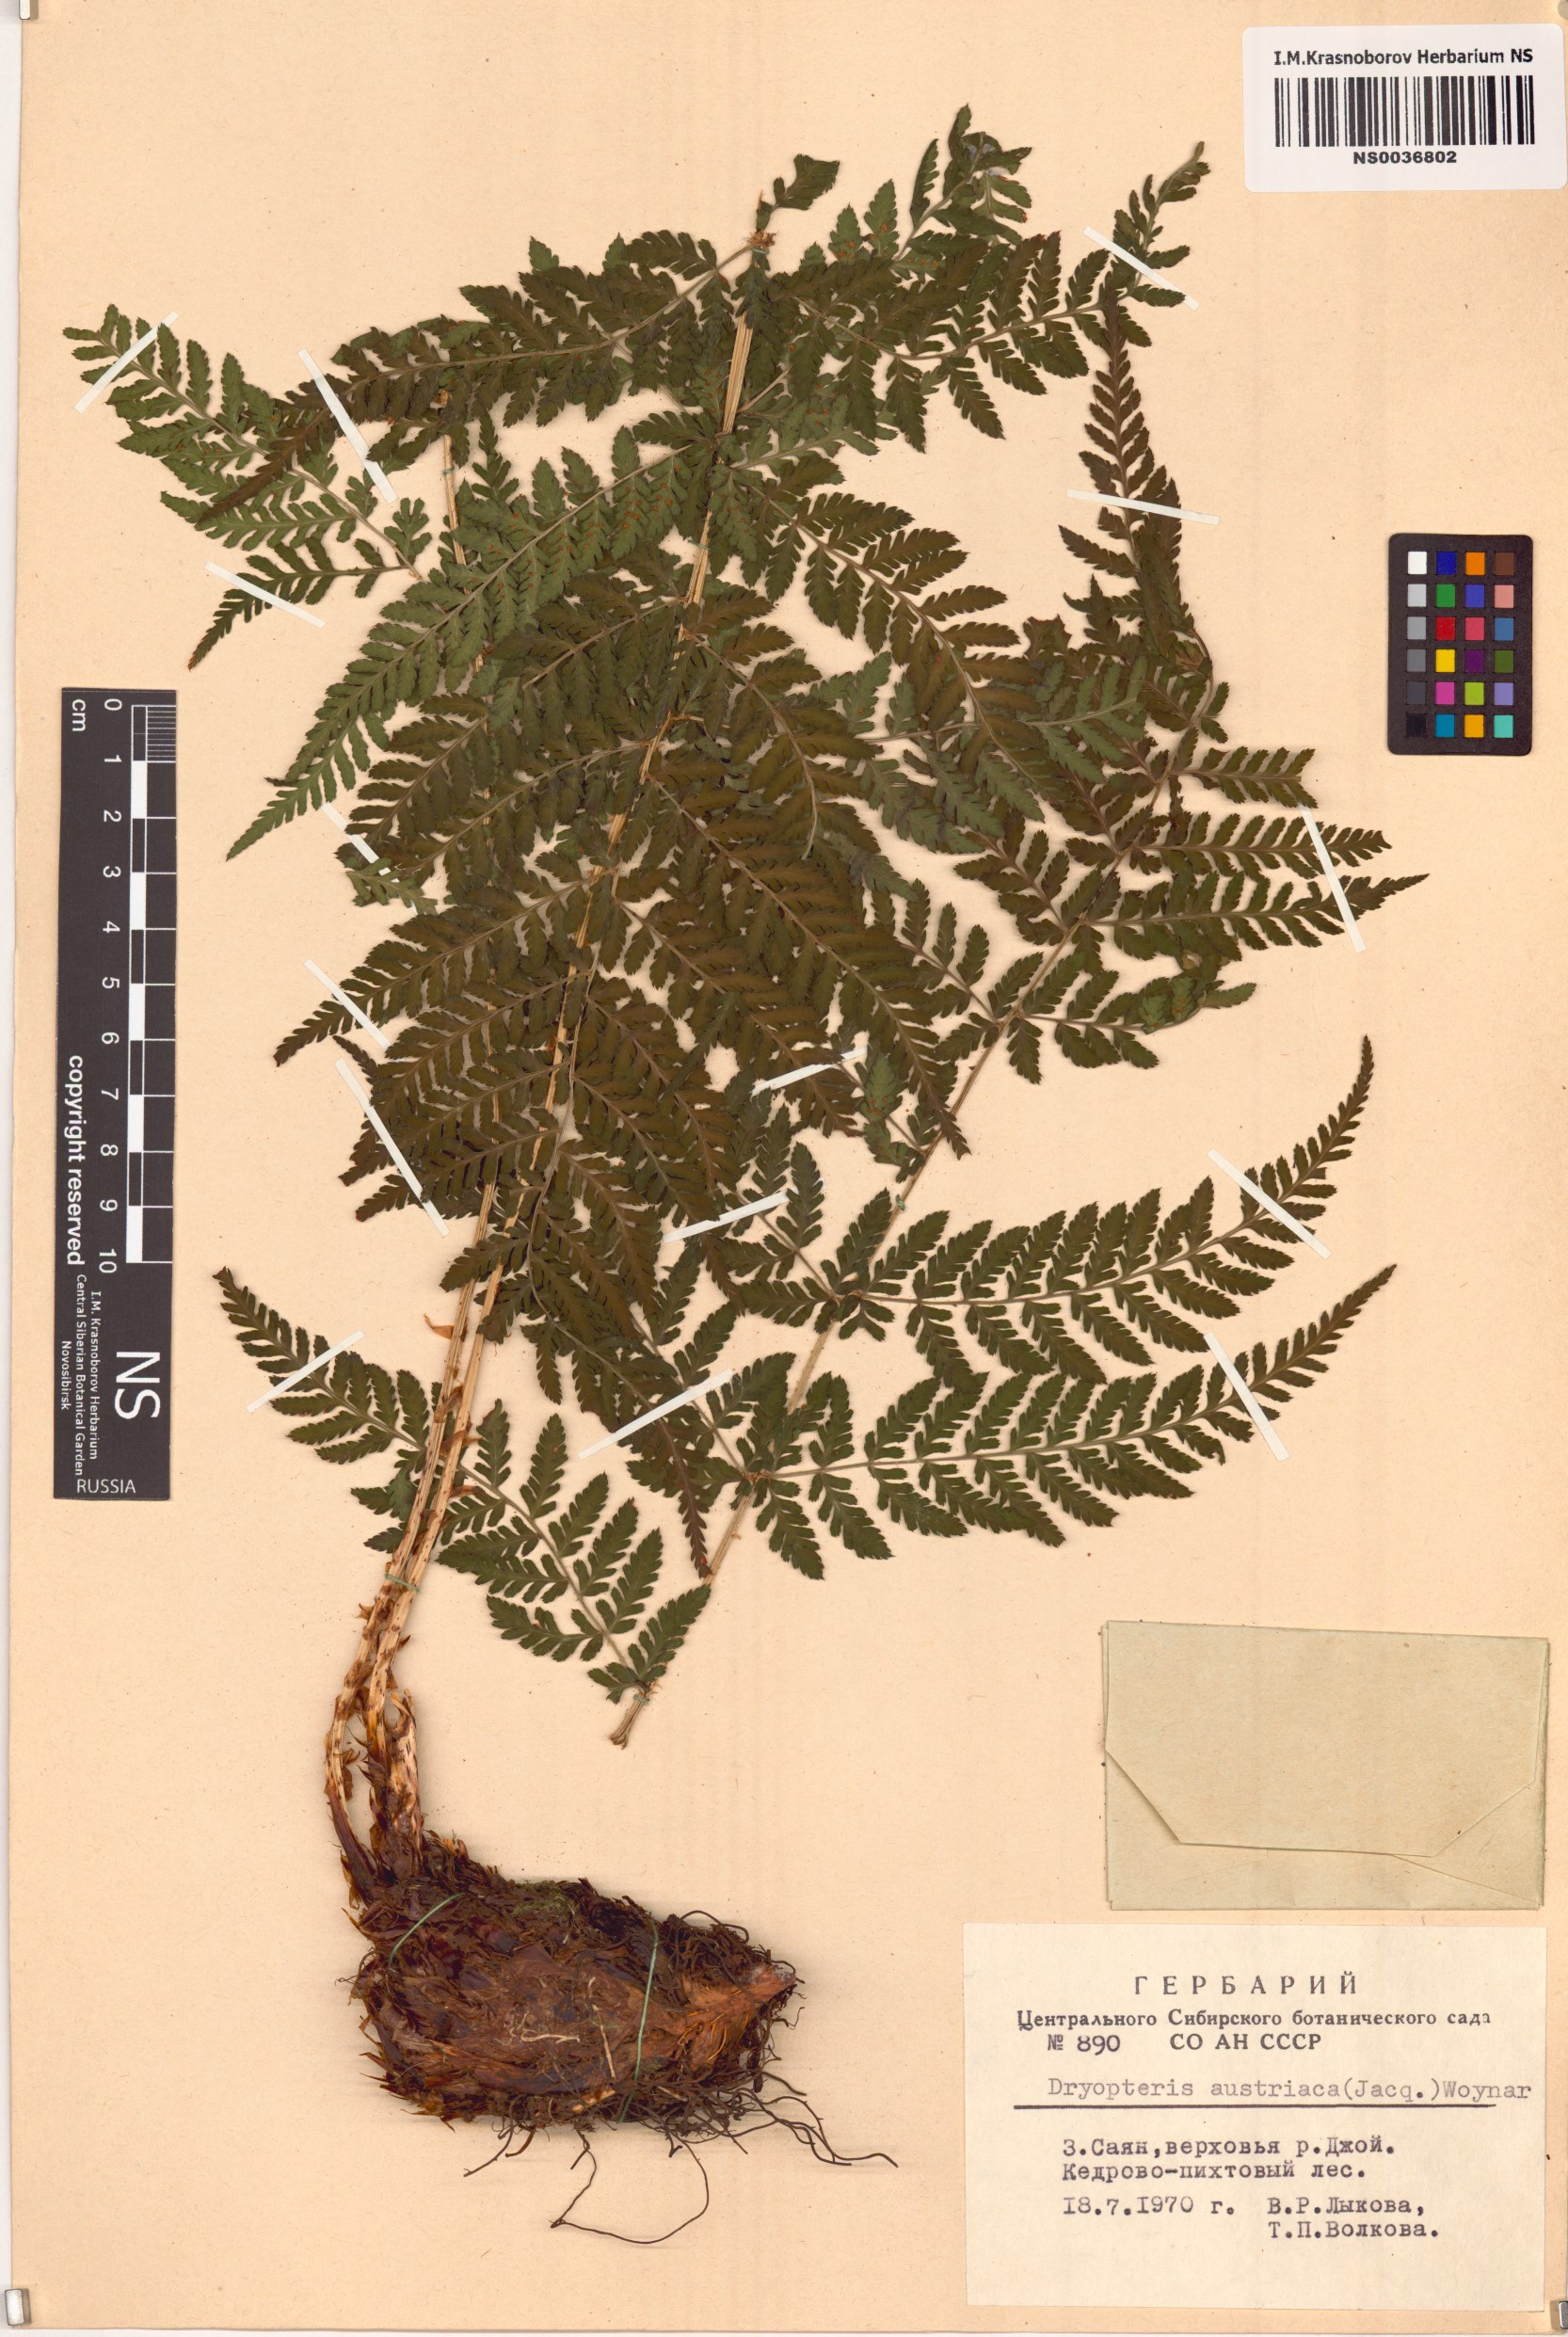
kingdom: Plantae
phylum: Tracheophyta
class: Polypodiopsida
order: Polypodiales
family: Dryopteridaceae
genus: Dryopteris
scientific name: Dryopteris dilatata
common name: Broad buckler-fern
